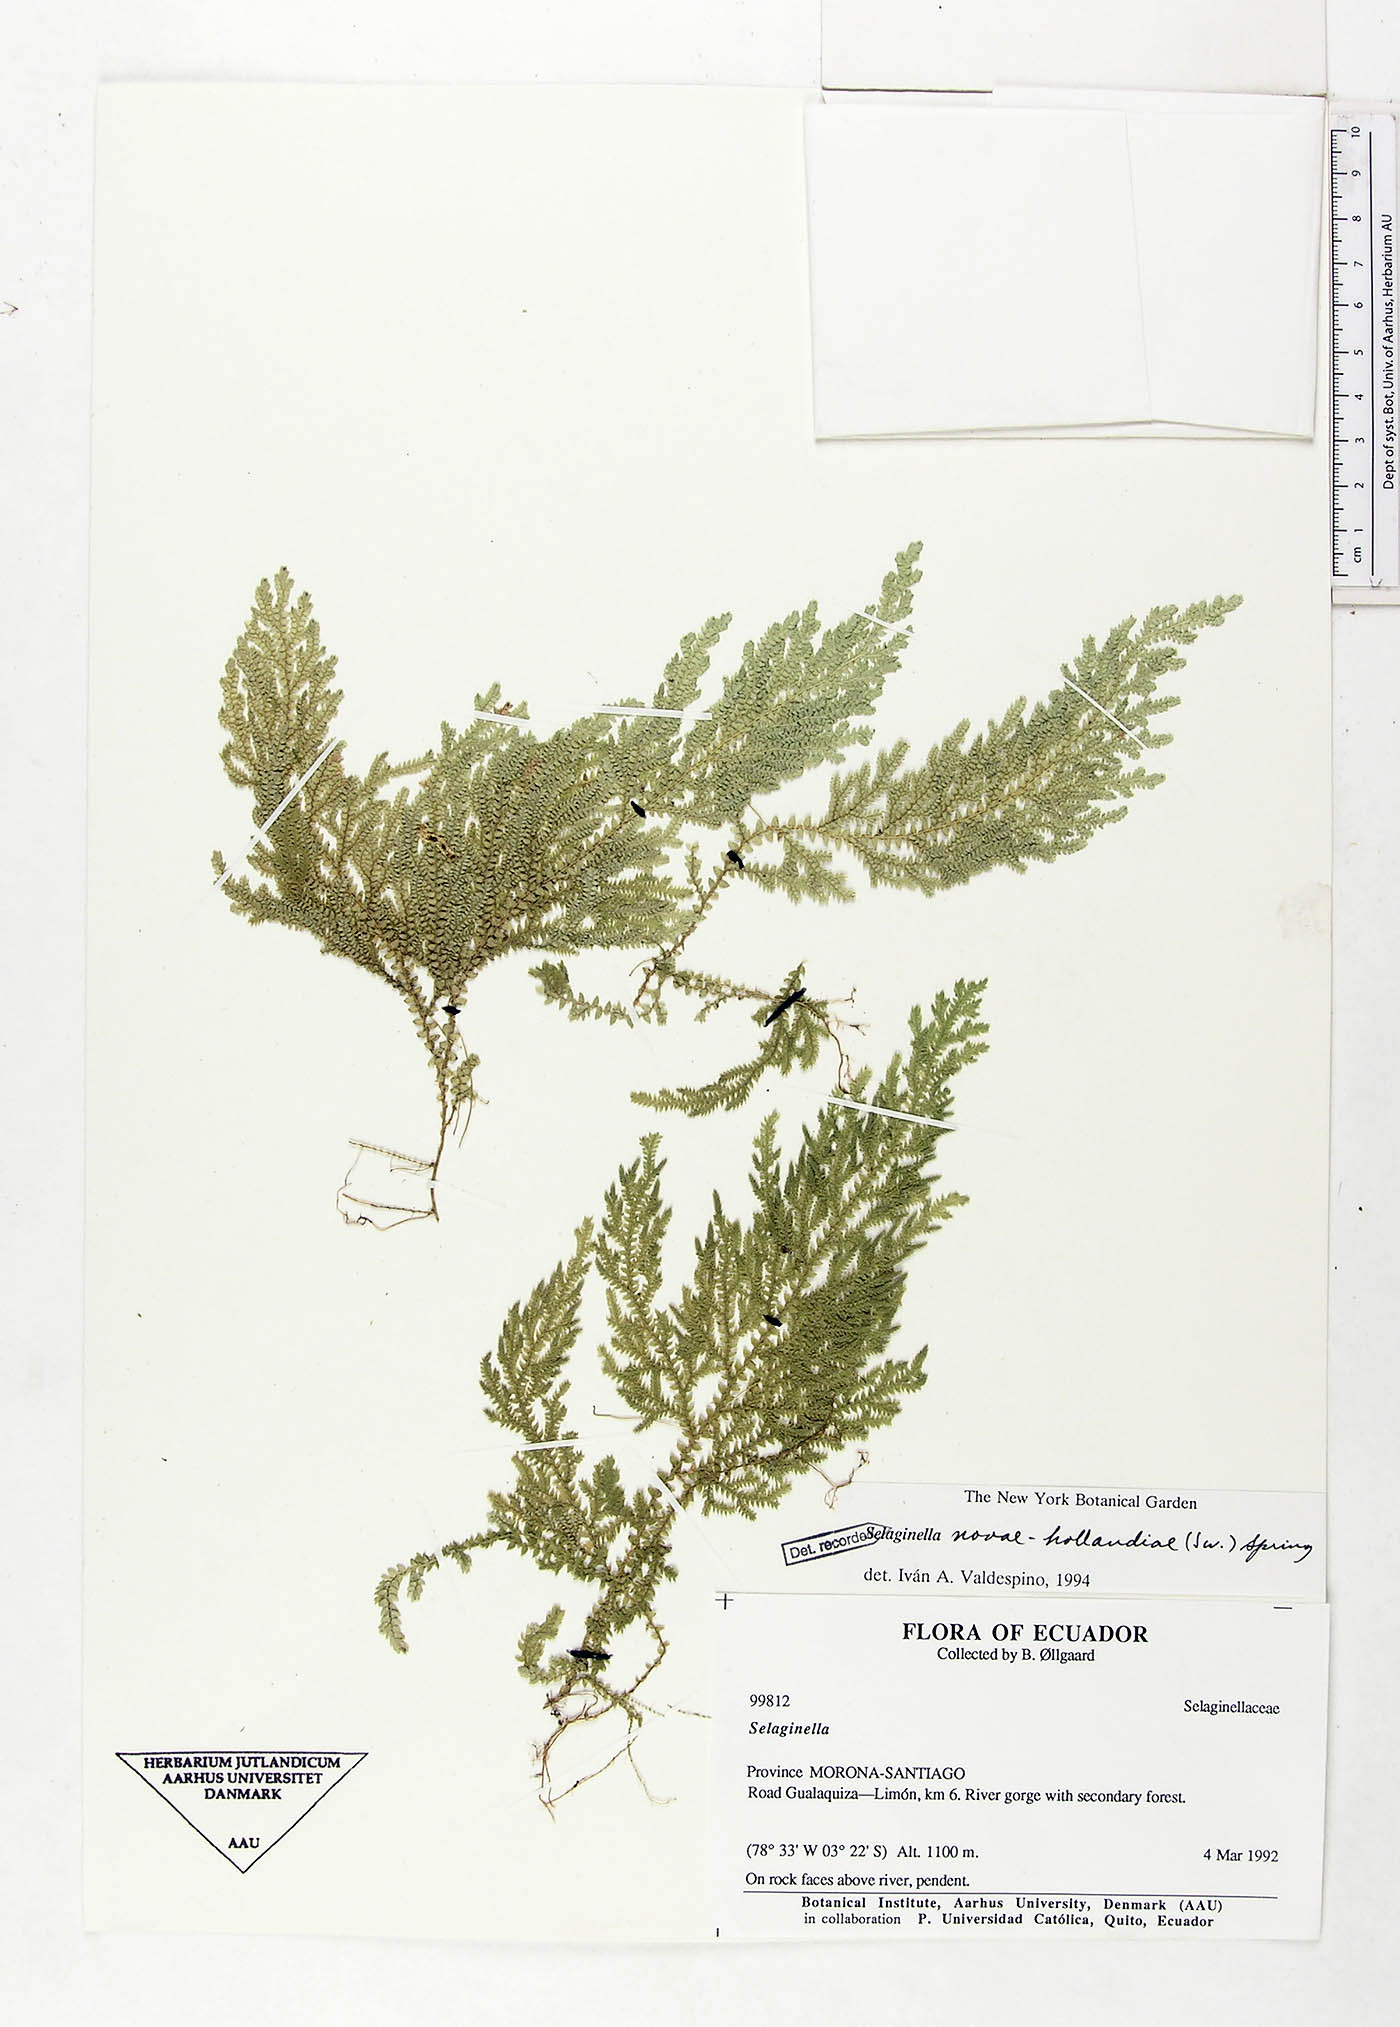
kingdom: Plantae
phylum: Tracheophyta
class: Lycopodiopsida
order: Selaginellales
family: Selaginellaceae
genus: Selaginella
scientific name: Selaginella novae-hollandiae
